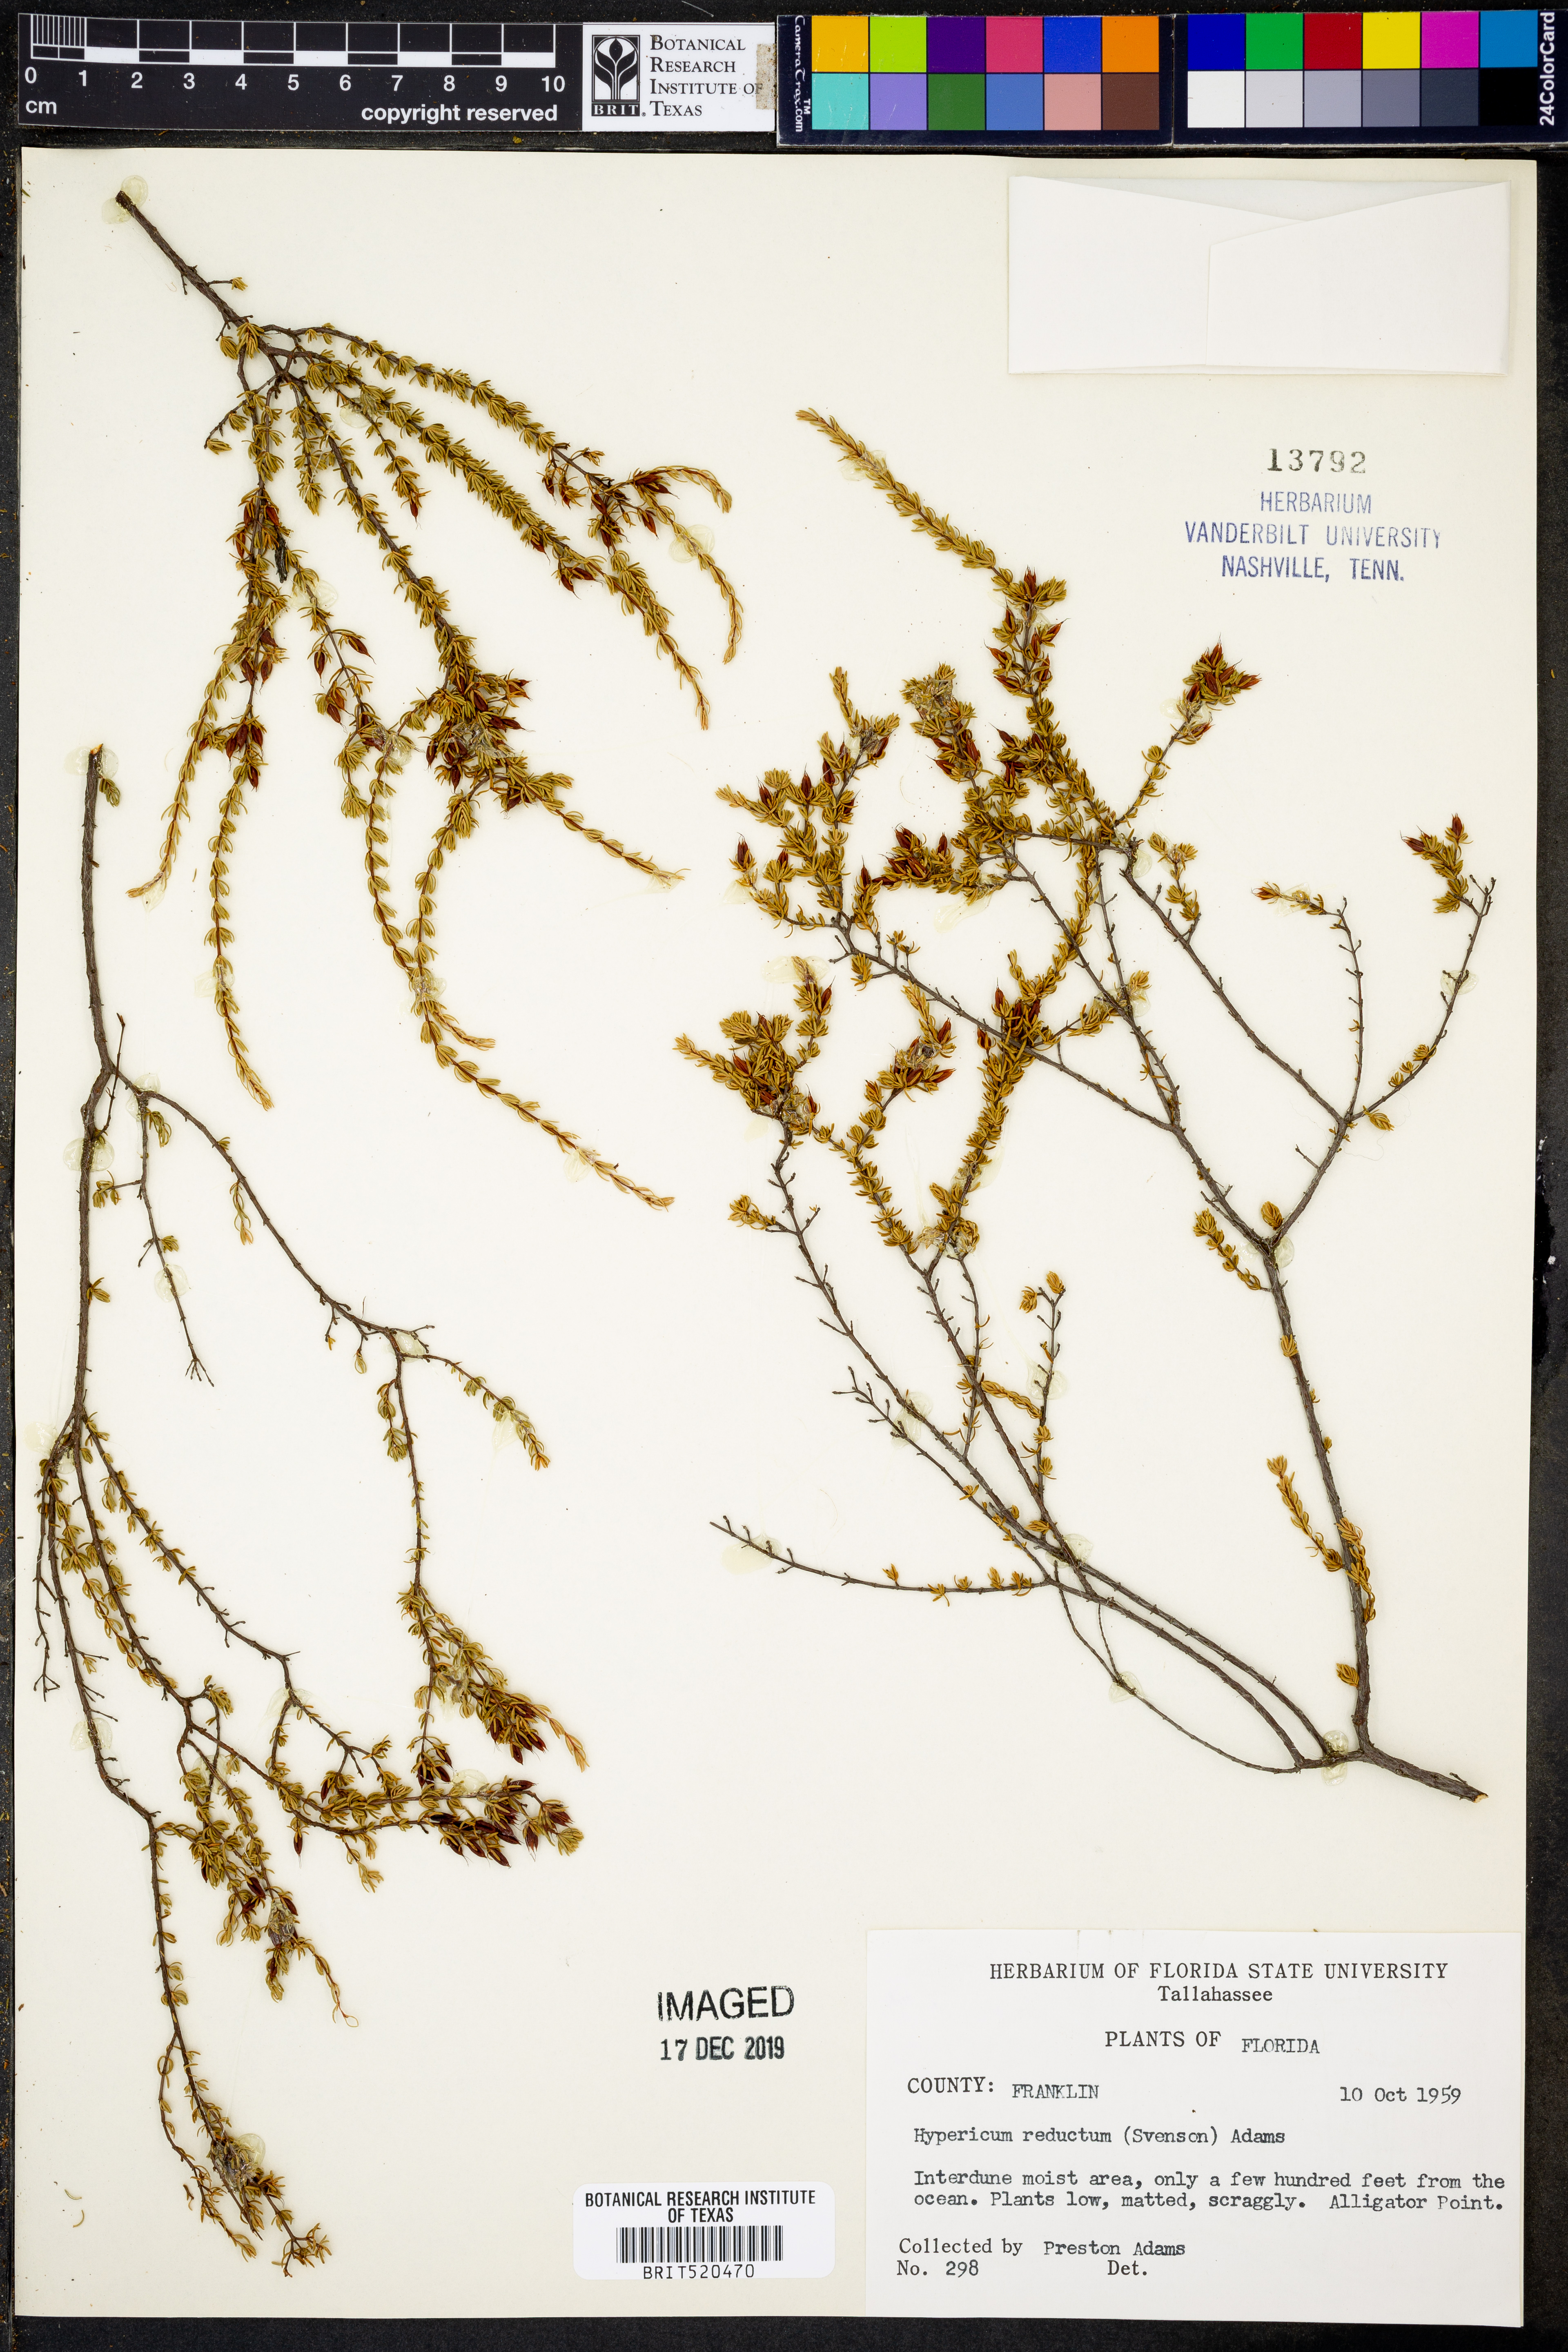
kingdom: Plantae
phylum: Tracheophyta
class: Magnoliopsida
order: Malpighiales
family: Hypericaceae
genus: Hypericum
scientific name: Hypericum tenuifolium
